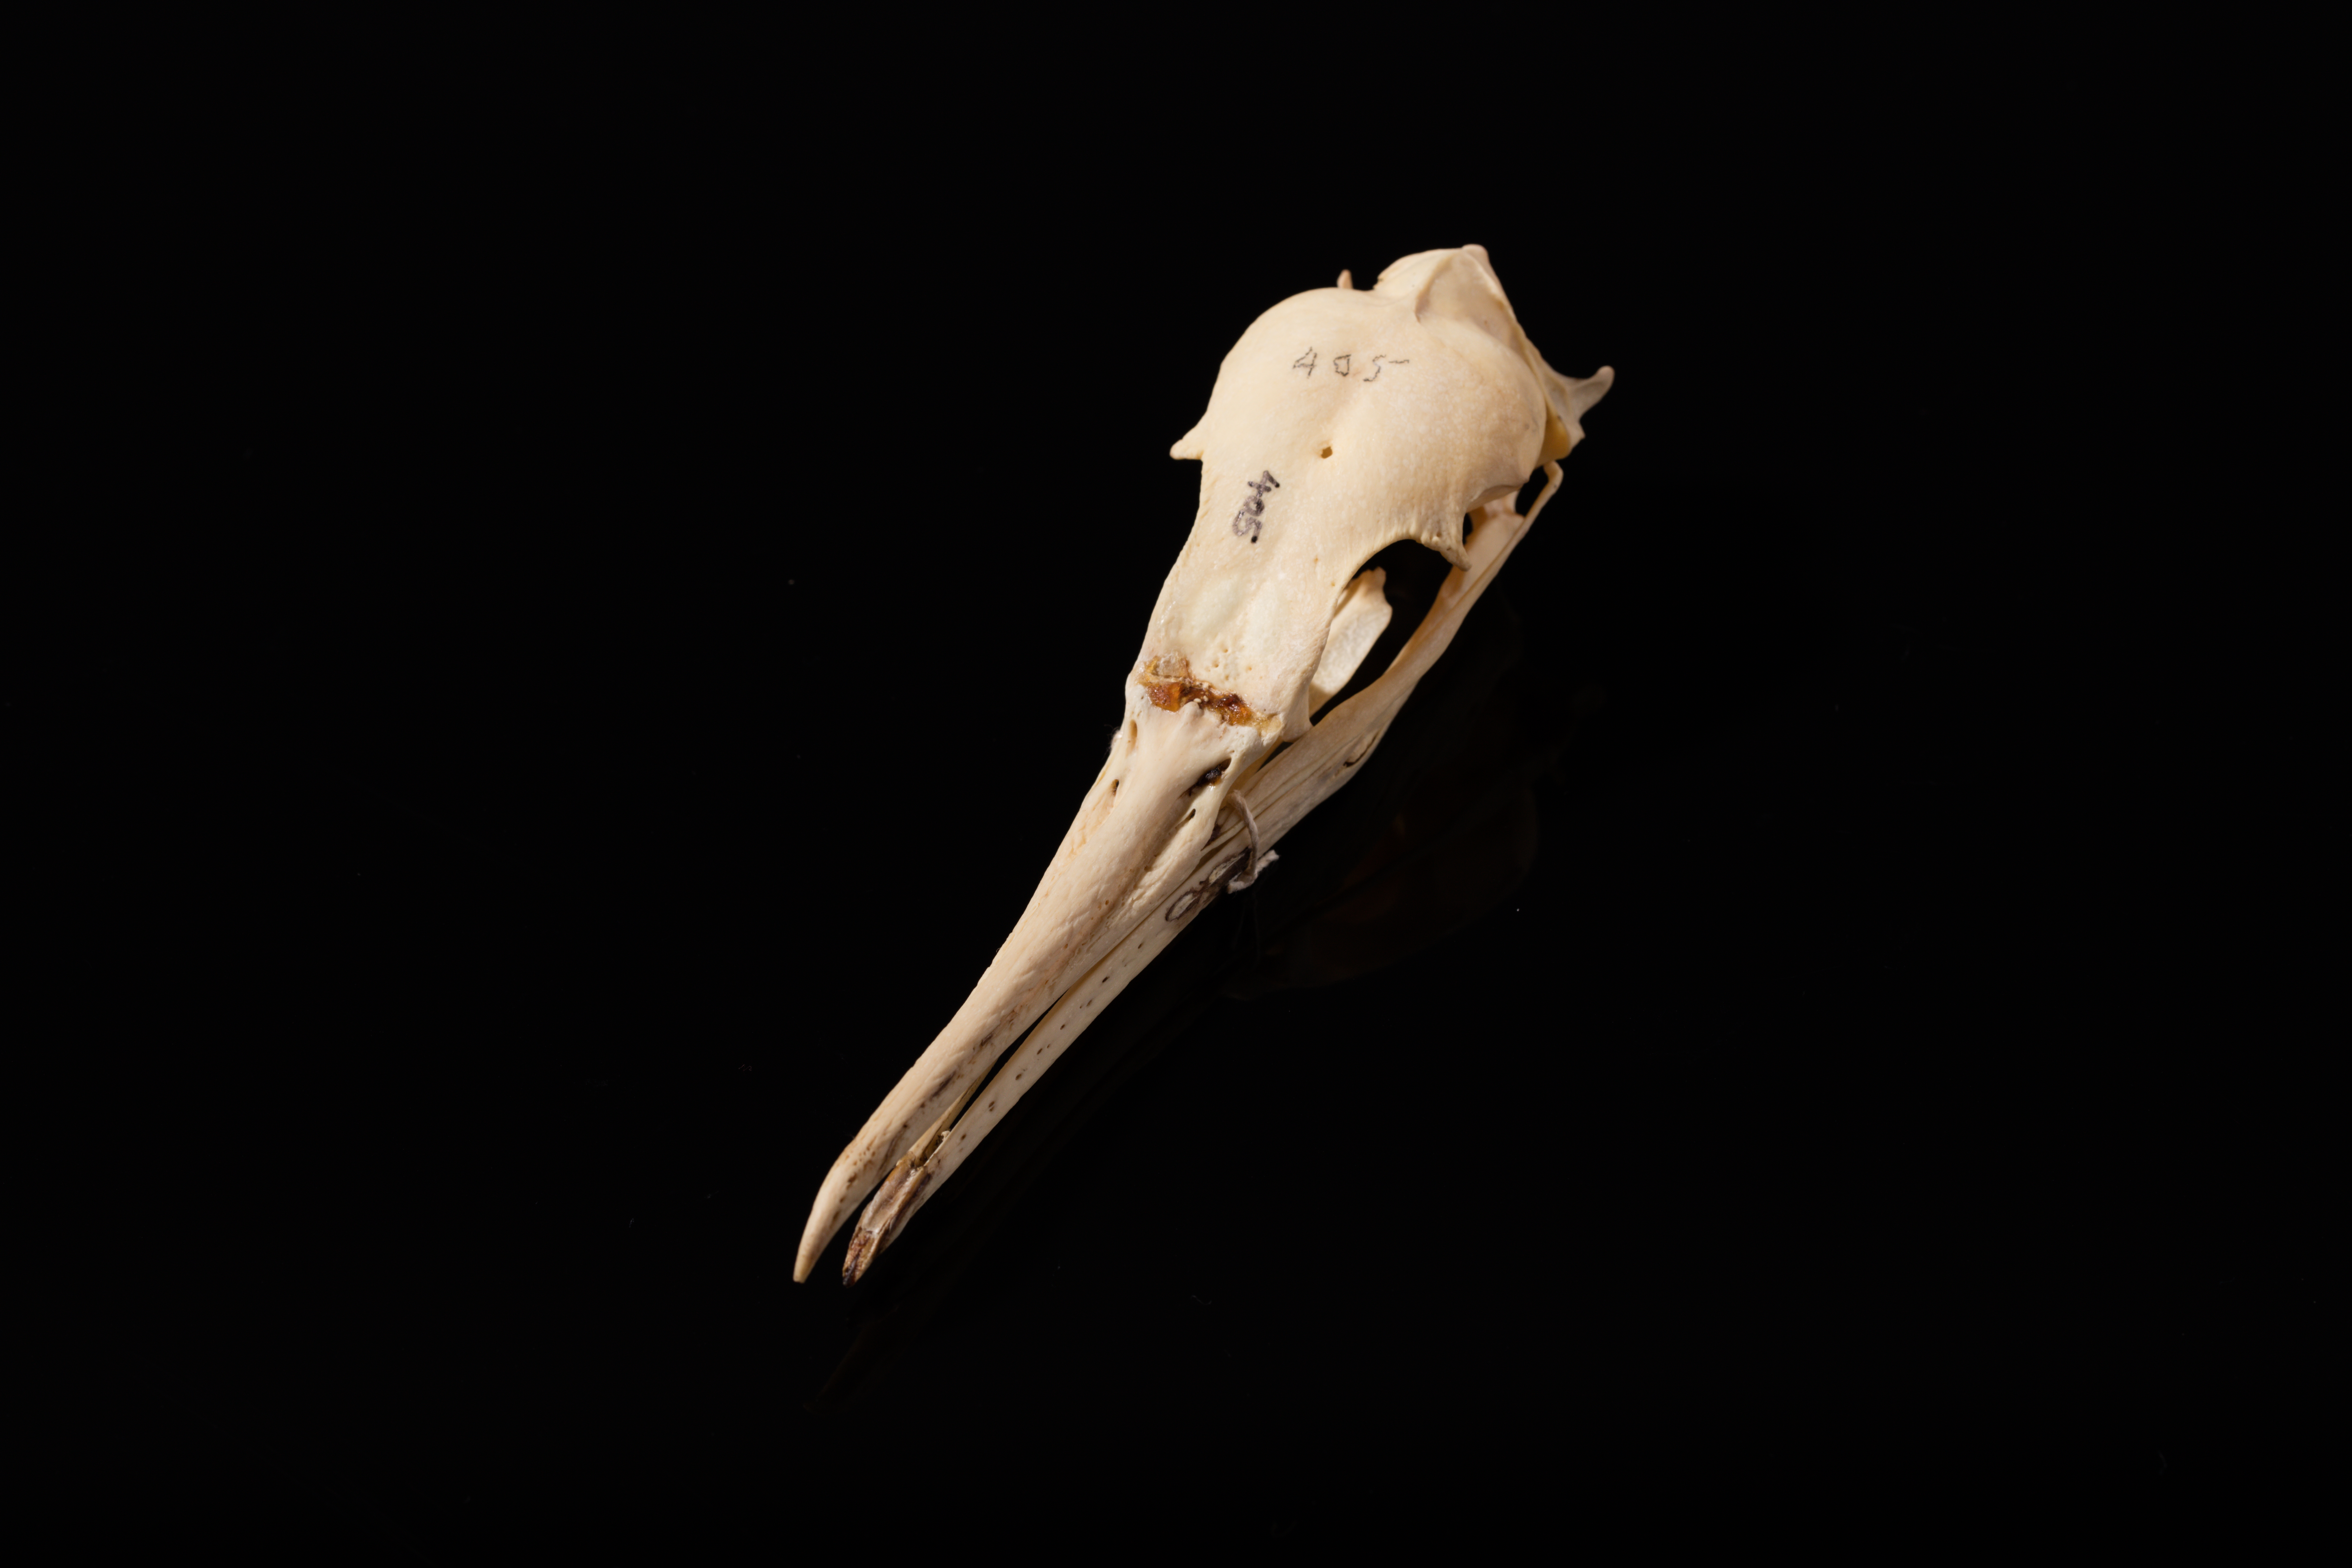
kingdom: Animalia
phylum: Chordata
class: Aves
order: Suliformes
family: Phalacrocoracidae
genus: Leucocarbo
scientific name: Leucocarbo bougainvillii
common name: Guanay cormorant
